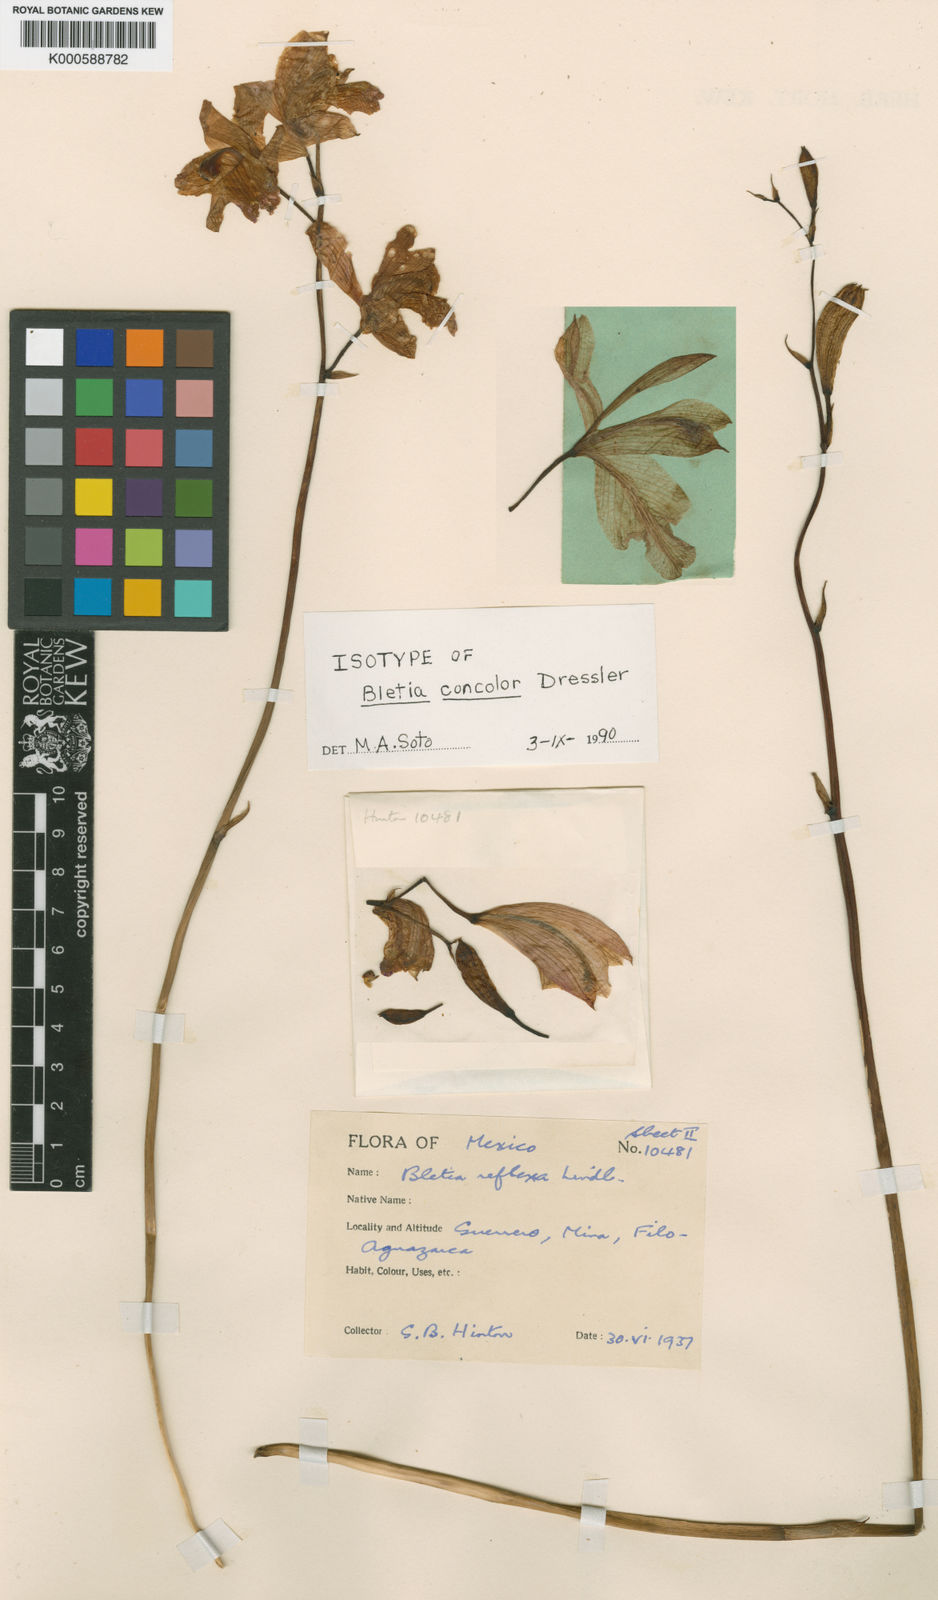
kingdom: Plantae
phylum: Tracheophyta
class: Liliopsida
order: Asparagales
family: Orchidaceae
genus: Bletia
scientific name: Bletia concolor
